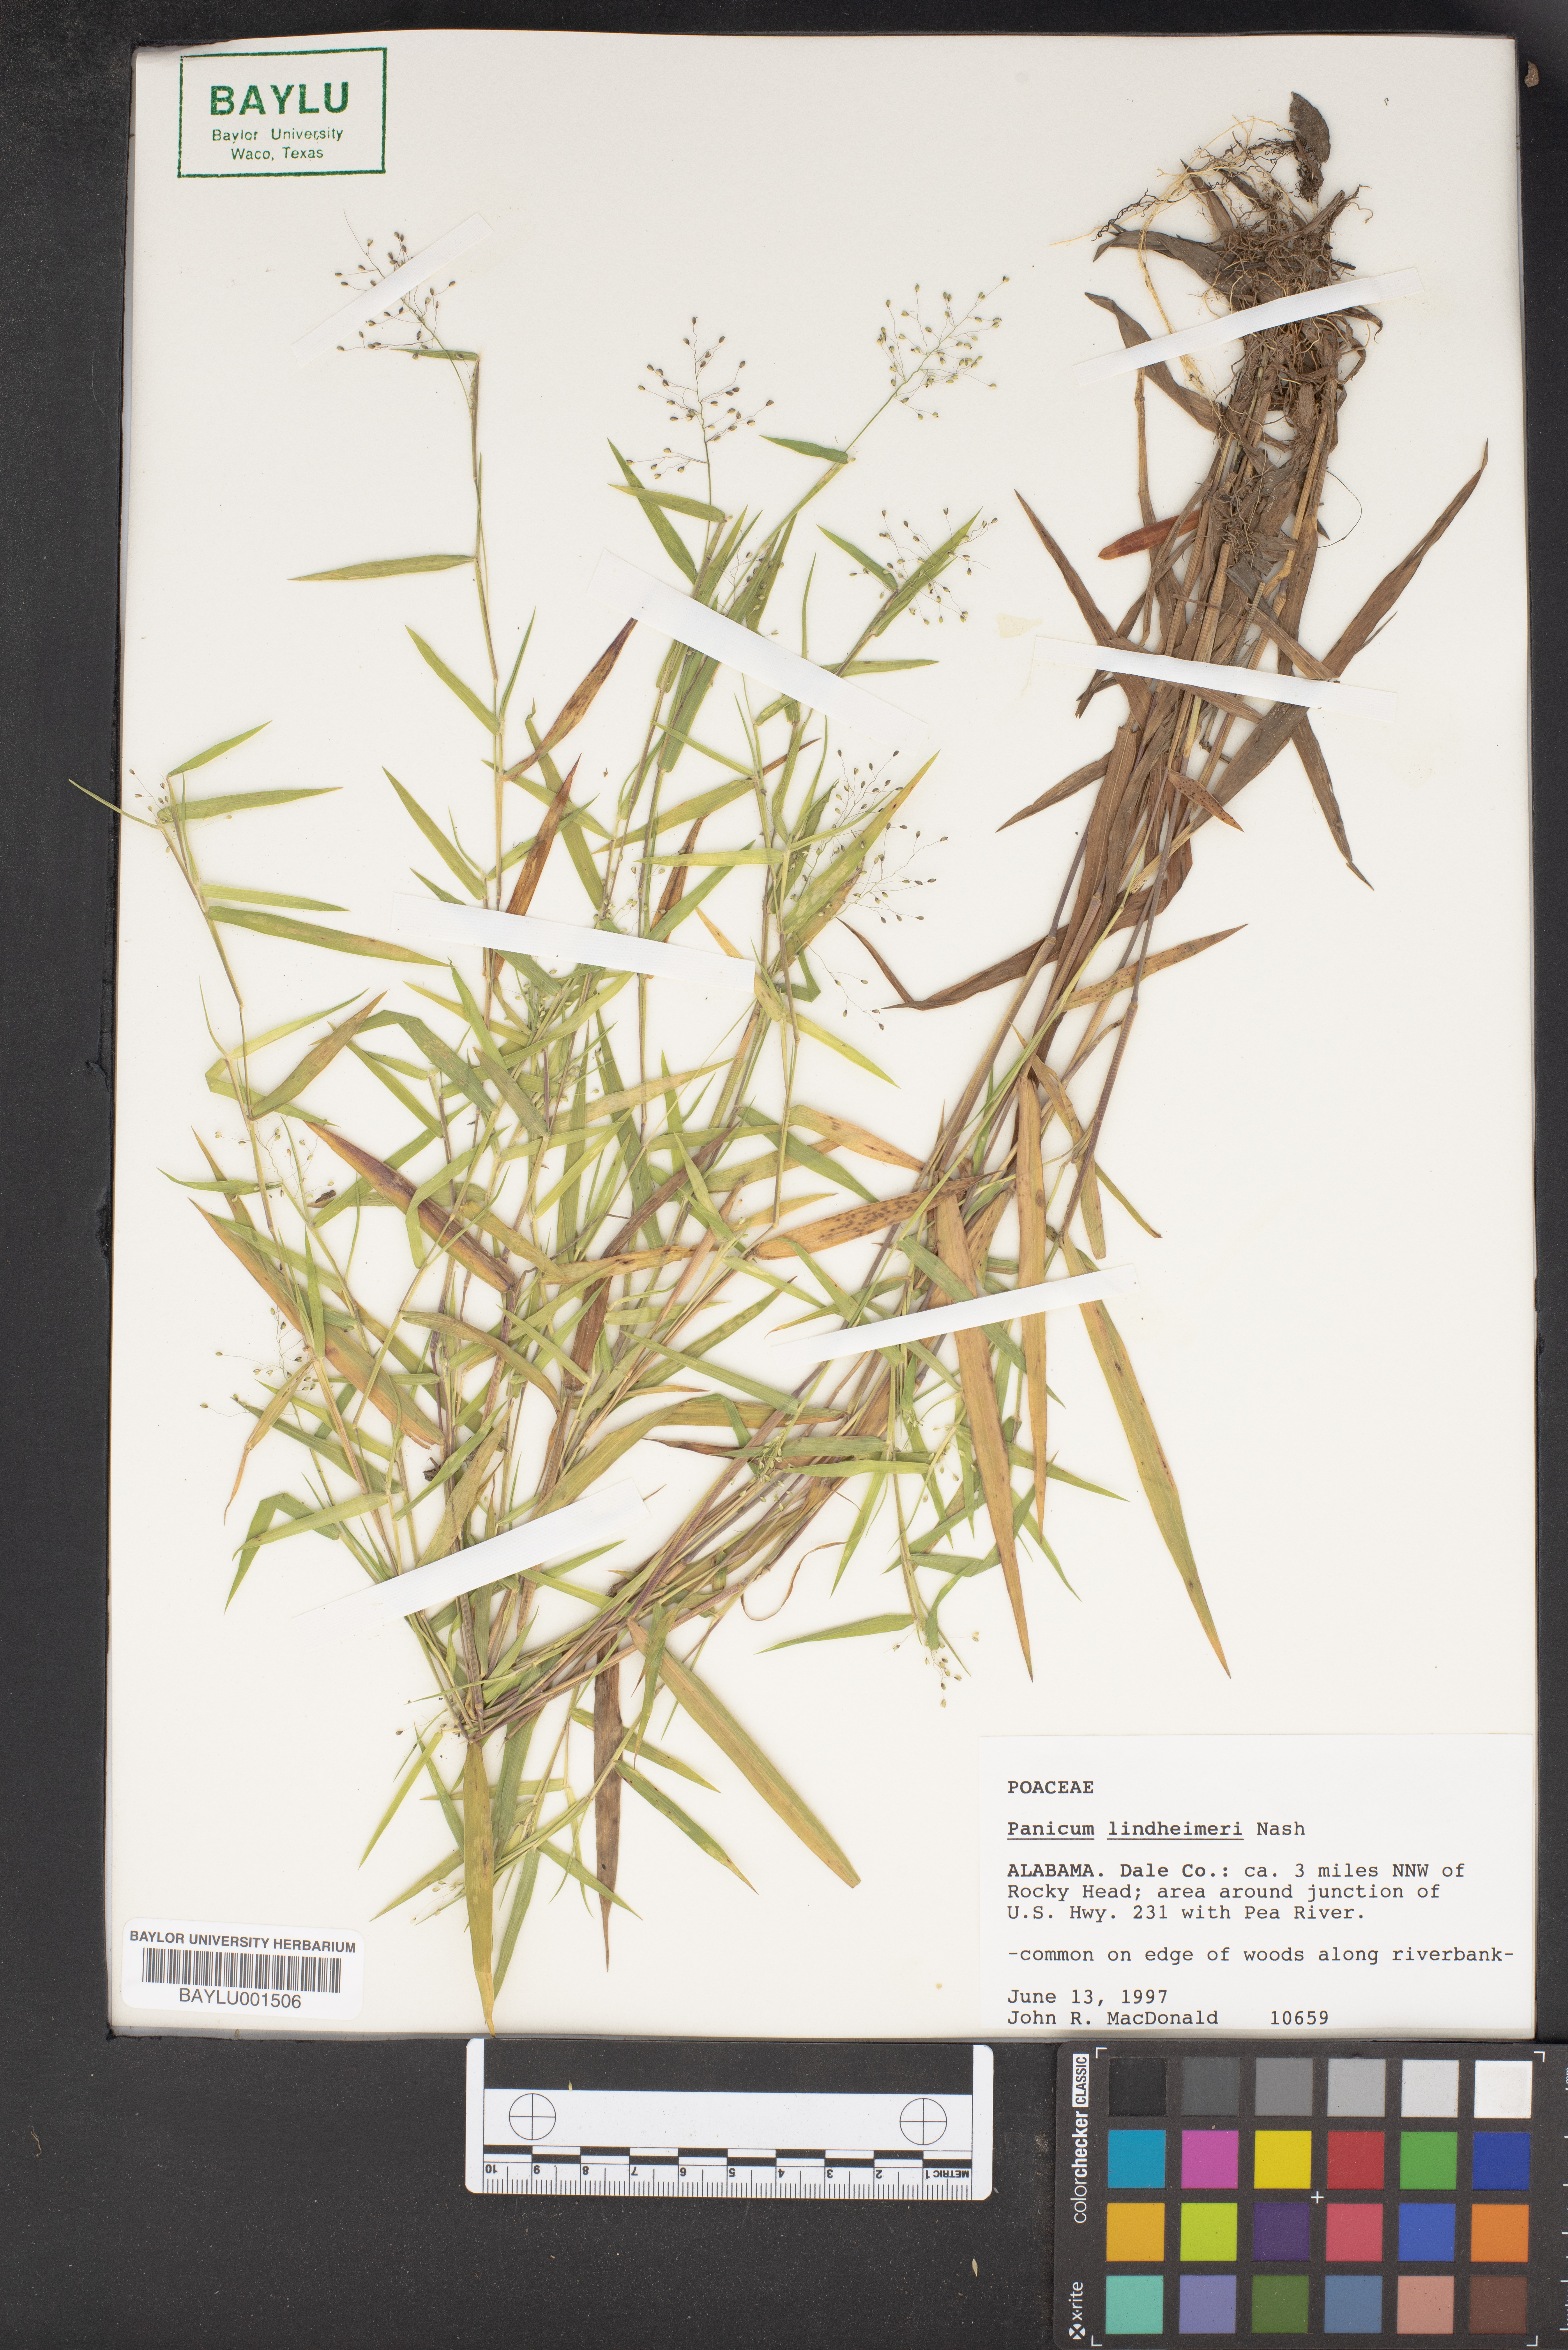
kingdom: Plantae
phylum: Tracheophyta
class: Liliopsida
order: Poales
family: Poaceae
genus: Dichanthelium
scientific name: Dichanthelium lindheimeri
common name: Lindheimer's panicgrass
